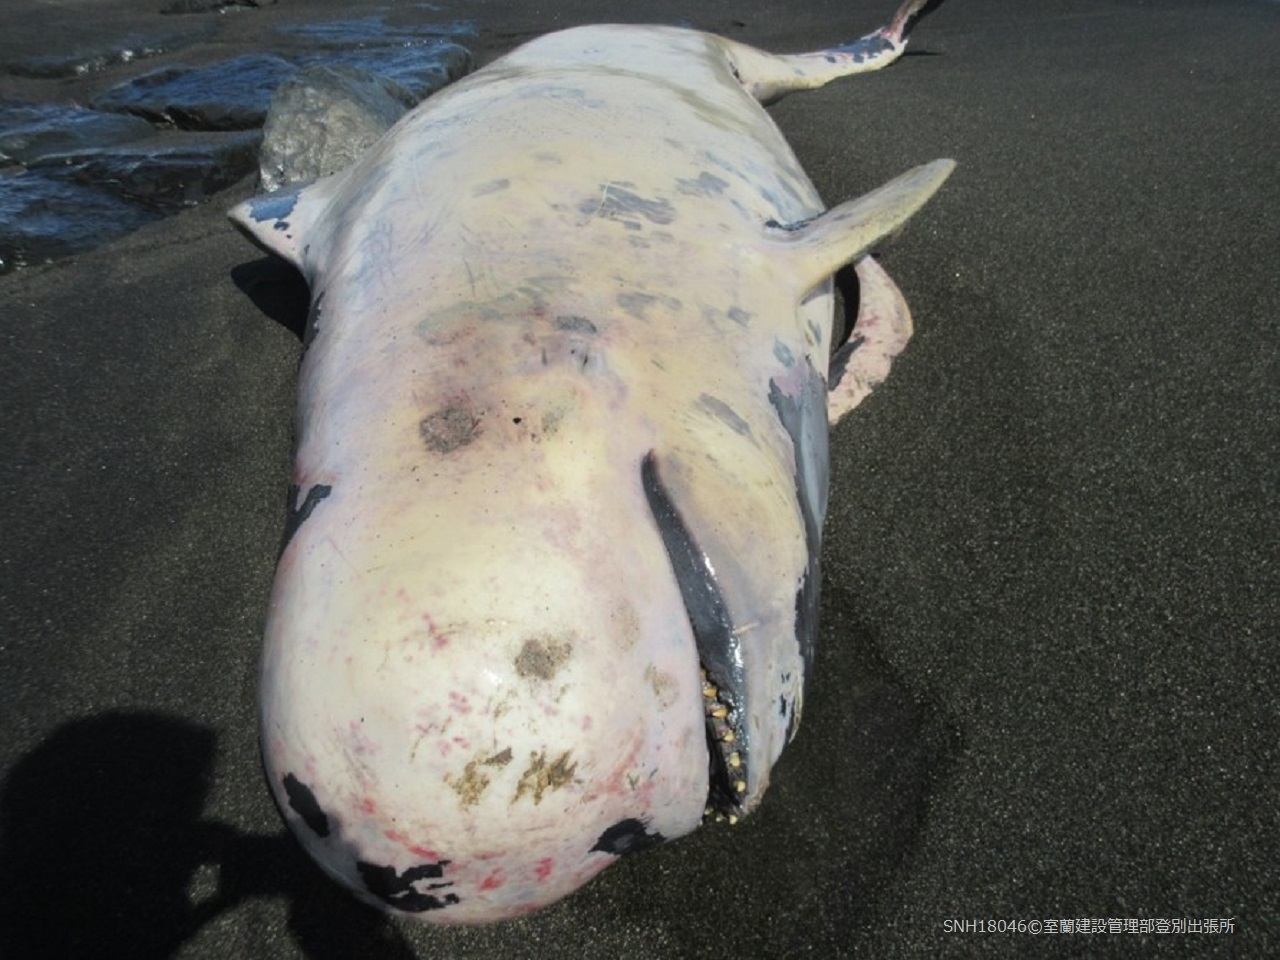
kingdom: Animalia
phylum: Chordata
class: Mammalia
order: Cetacea
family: Delphinidae
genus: Globicephala
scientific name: Globicephala macrorhynchus
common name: Short-finned pilot whale
